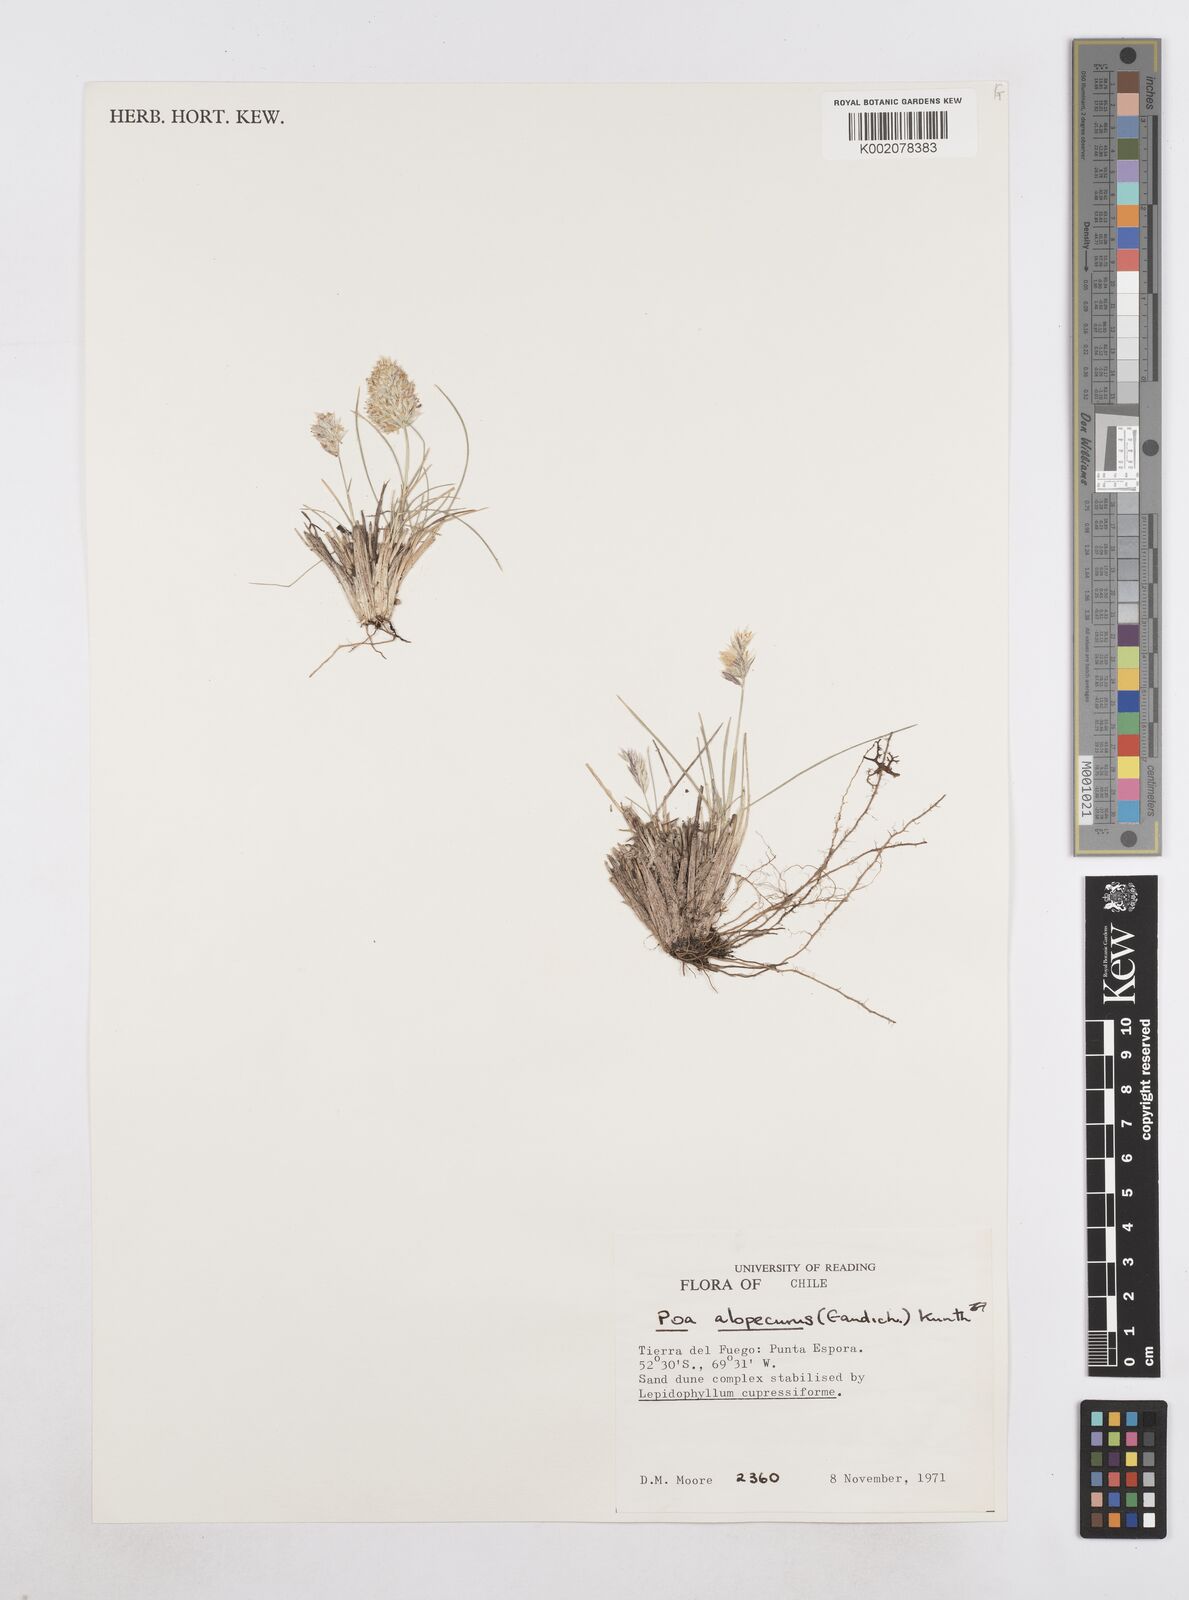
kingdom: Plantae
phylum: Tracheophyta
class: Liliopsida
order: Poales
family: Poaceae
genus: Poa
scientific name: Poa alopecurus
